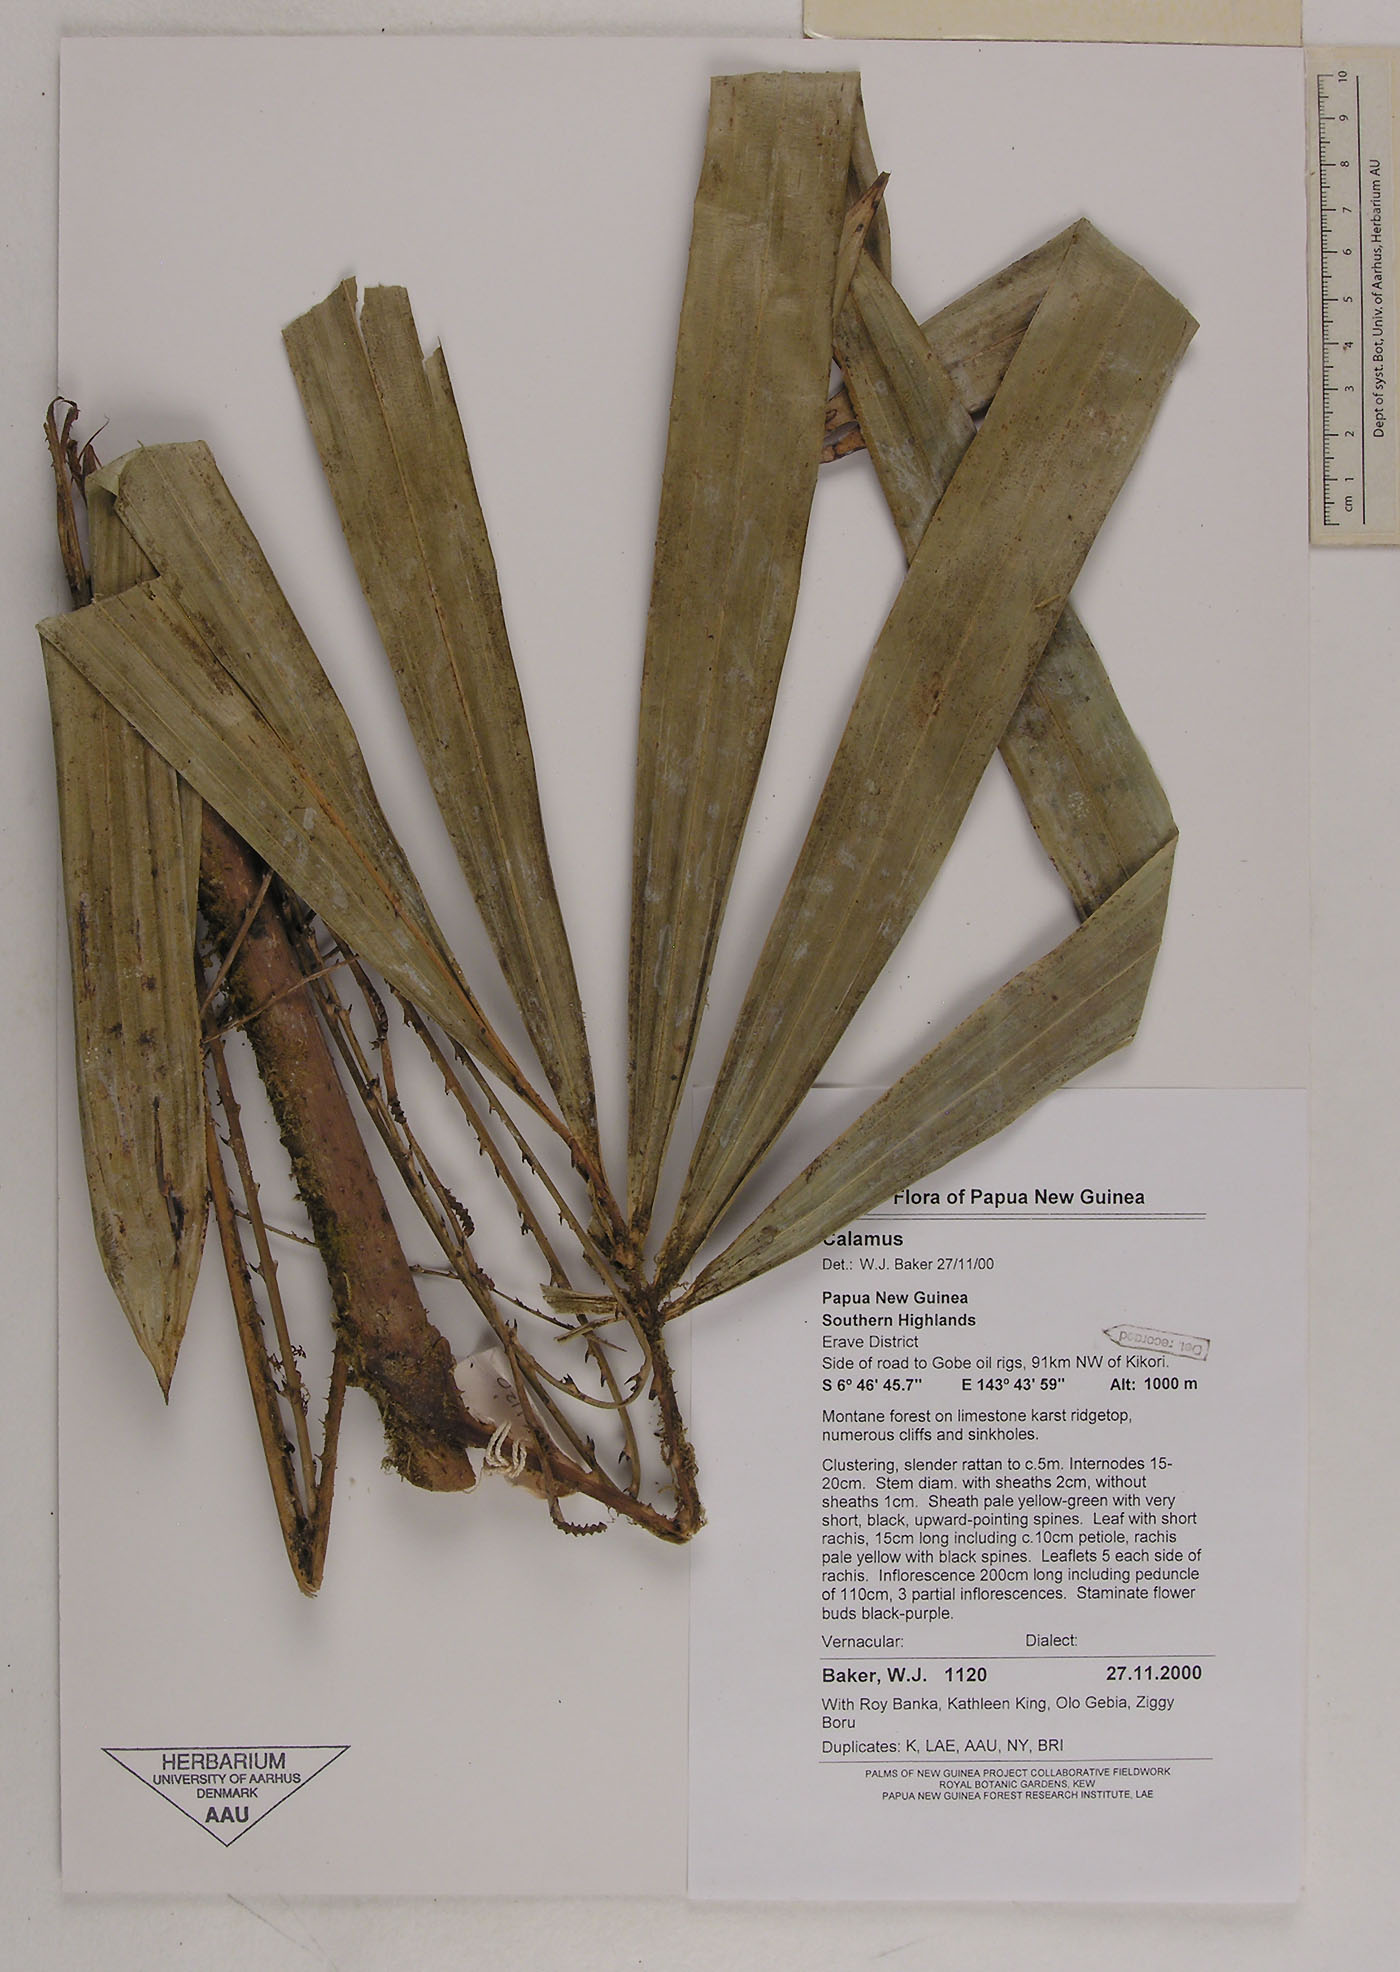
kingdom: Plantae
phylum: Tracheophyta
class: Liliopsida
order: Arecales
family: Arecaceae
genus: Calamus
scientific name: Calamus oresbius
